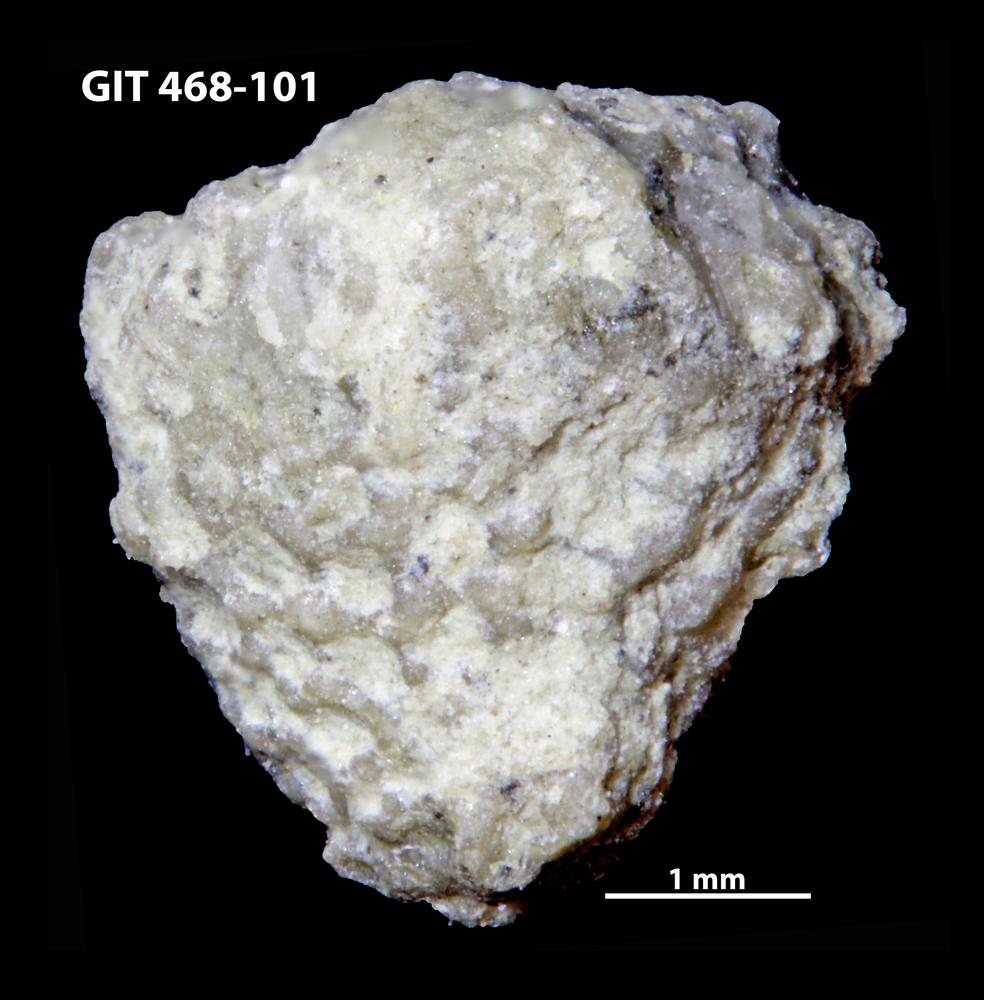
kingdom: Animalia
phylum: Echinodermata
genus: Bolboporites
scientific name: Bolboporites
